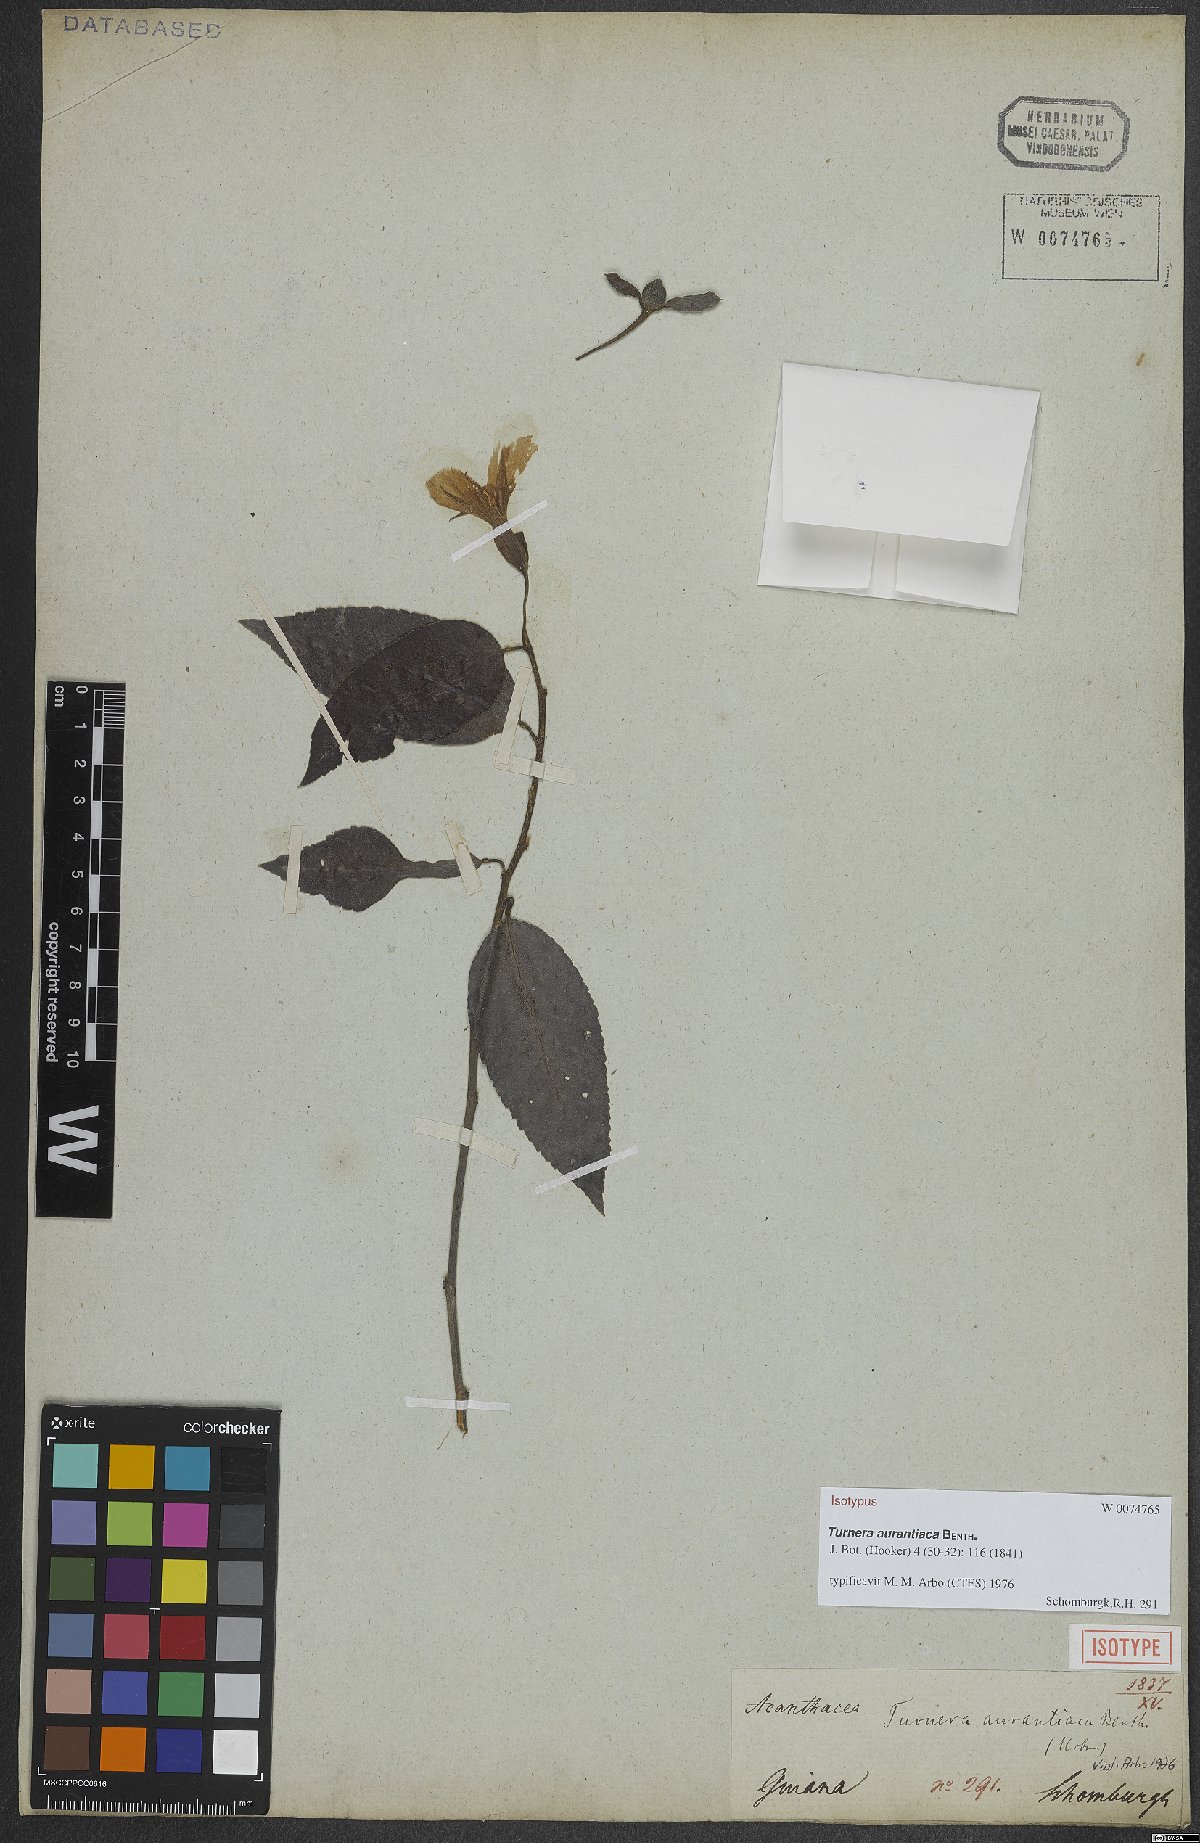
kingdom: Plantae
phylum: Tracheophyta
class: Magnoliopsida
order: Malpighiales
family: Turneraceae
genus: Turnera
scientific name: Turnera aurantiaca
